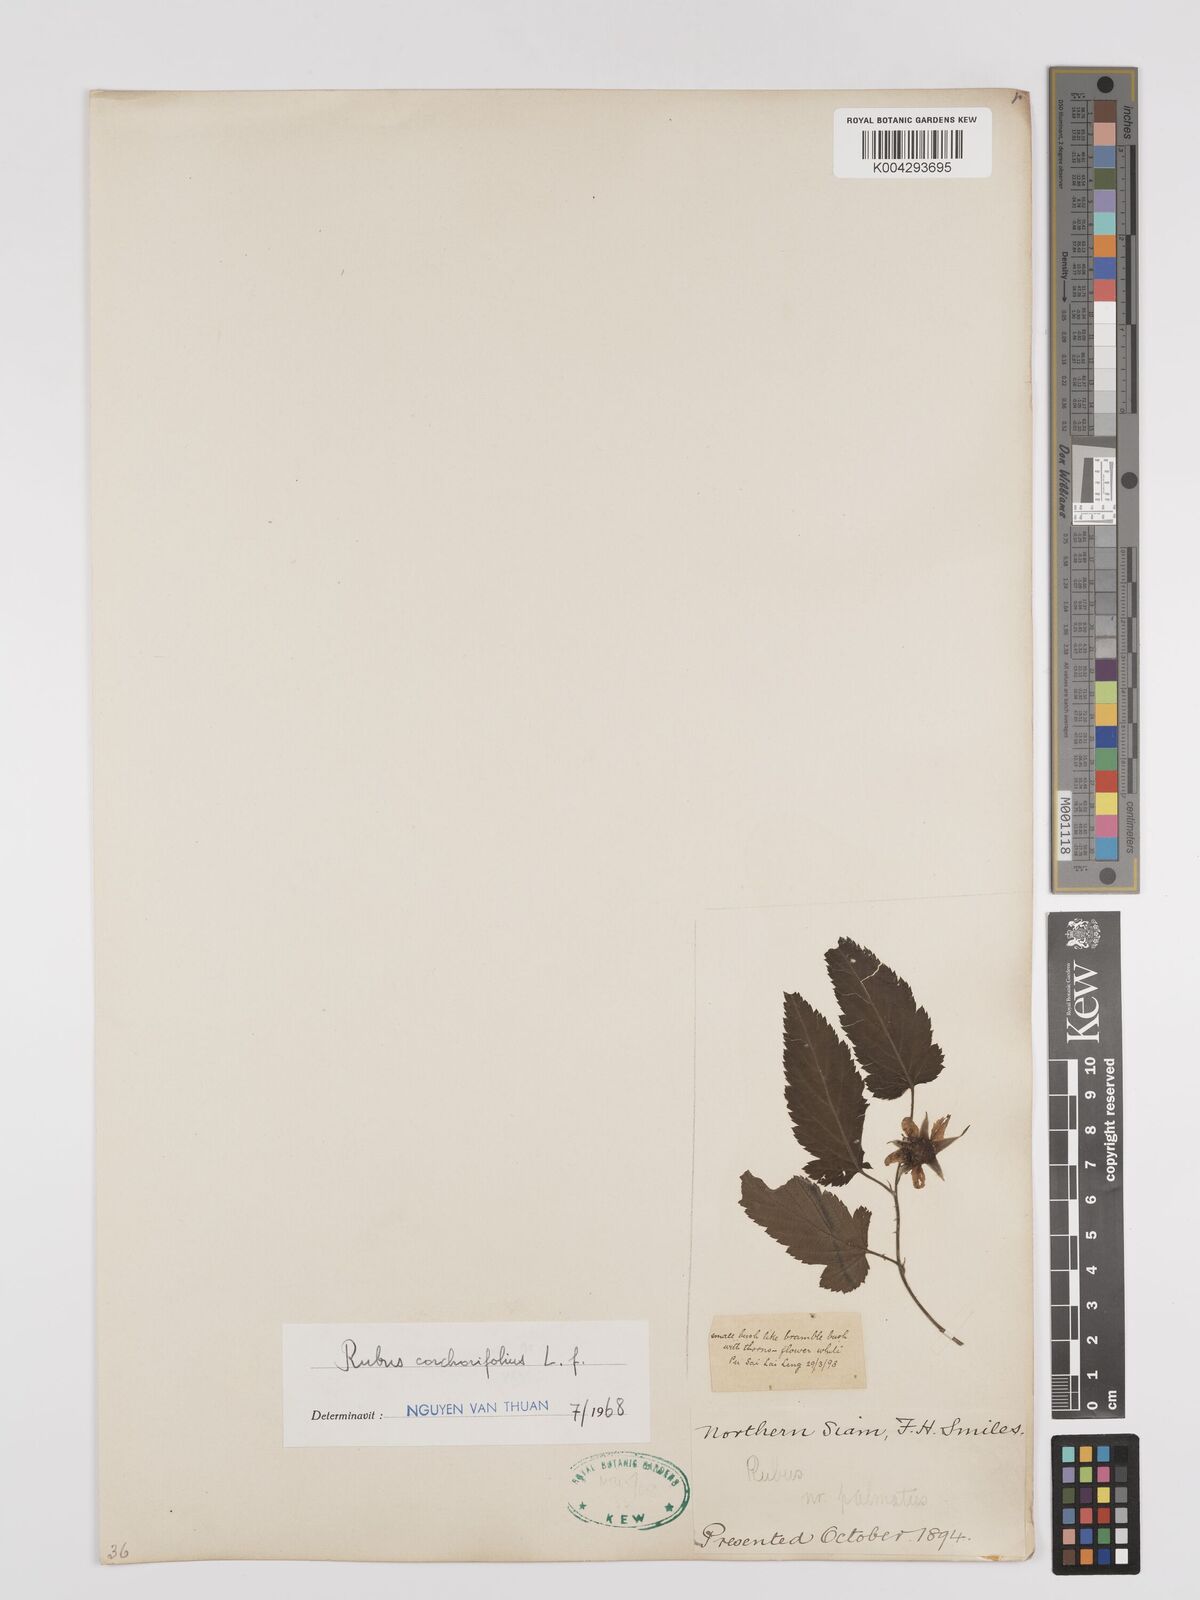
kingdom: Plantae
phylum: Tracheophyta
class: Magnoliopsida
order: Rosales
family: Rosaceae
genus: Rubus
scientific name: Rubus corchorifolius
